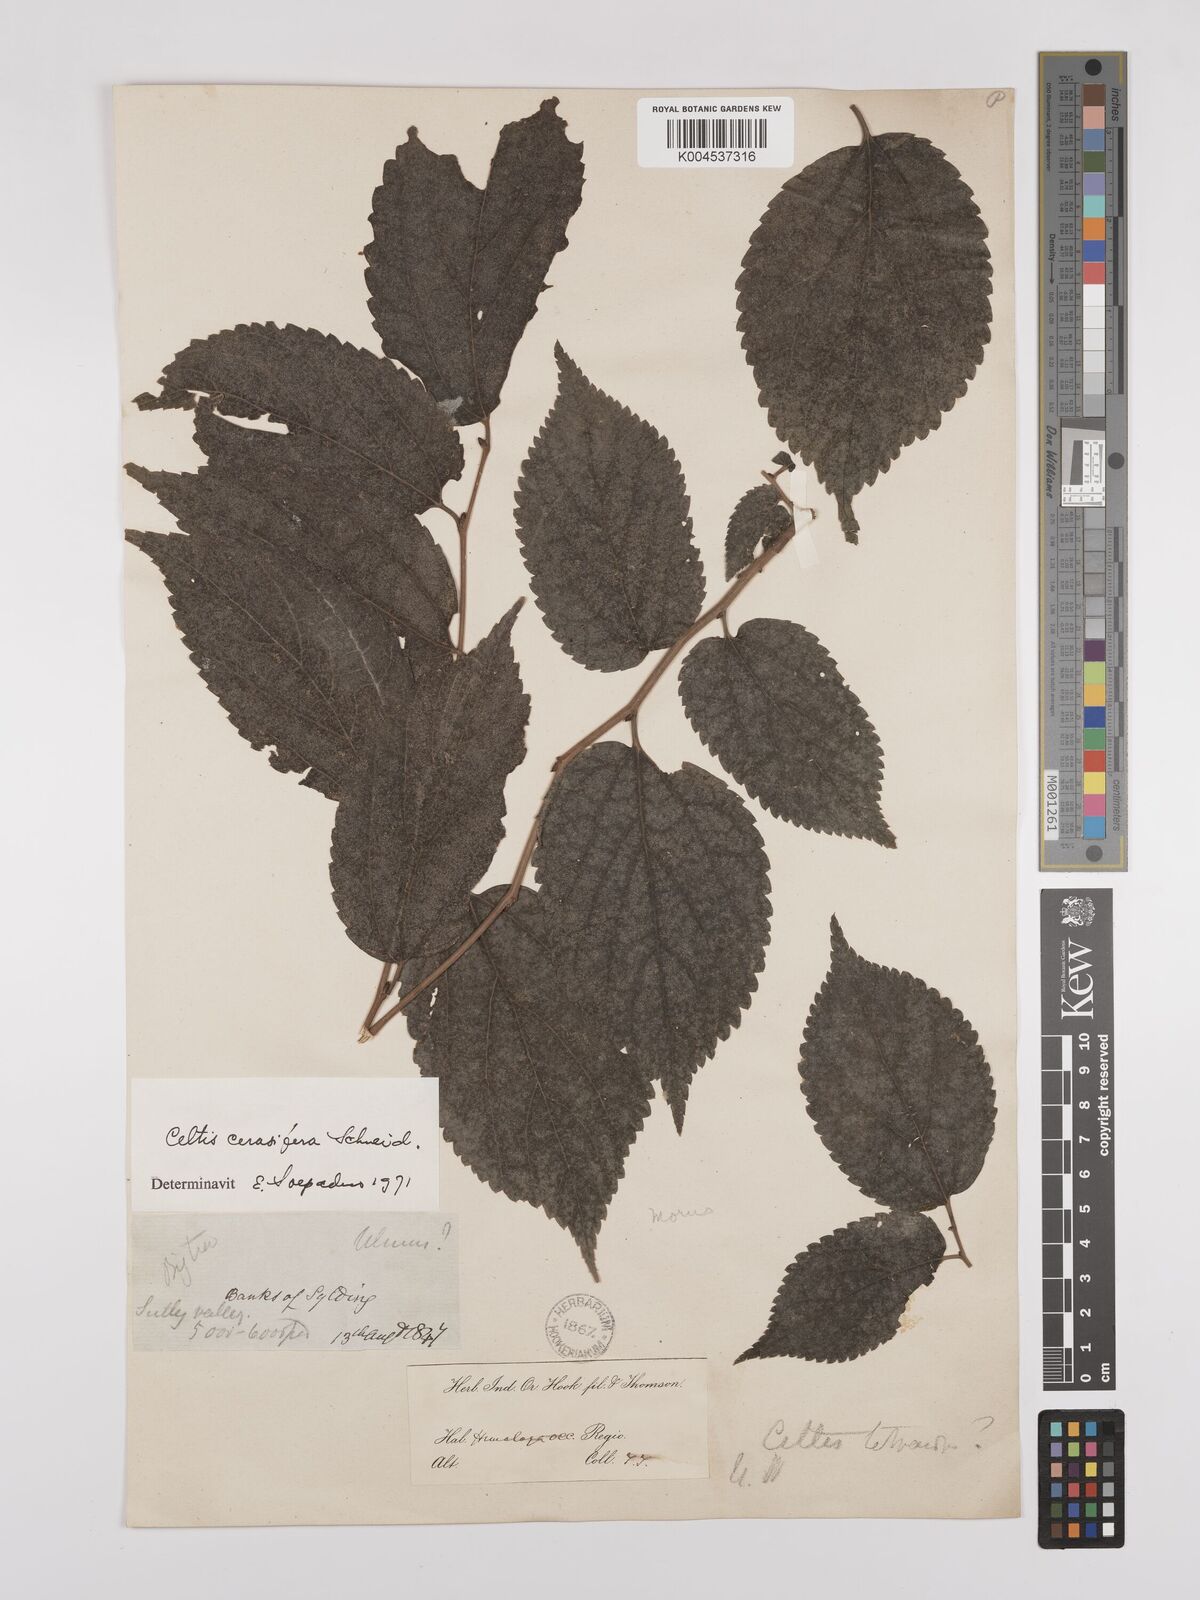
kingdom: Plantae
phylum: Tracheophyta
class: Magnoliopsida
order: Rosales
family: Cannabaceae
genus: Celtis
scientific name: Celtis cerasifera
